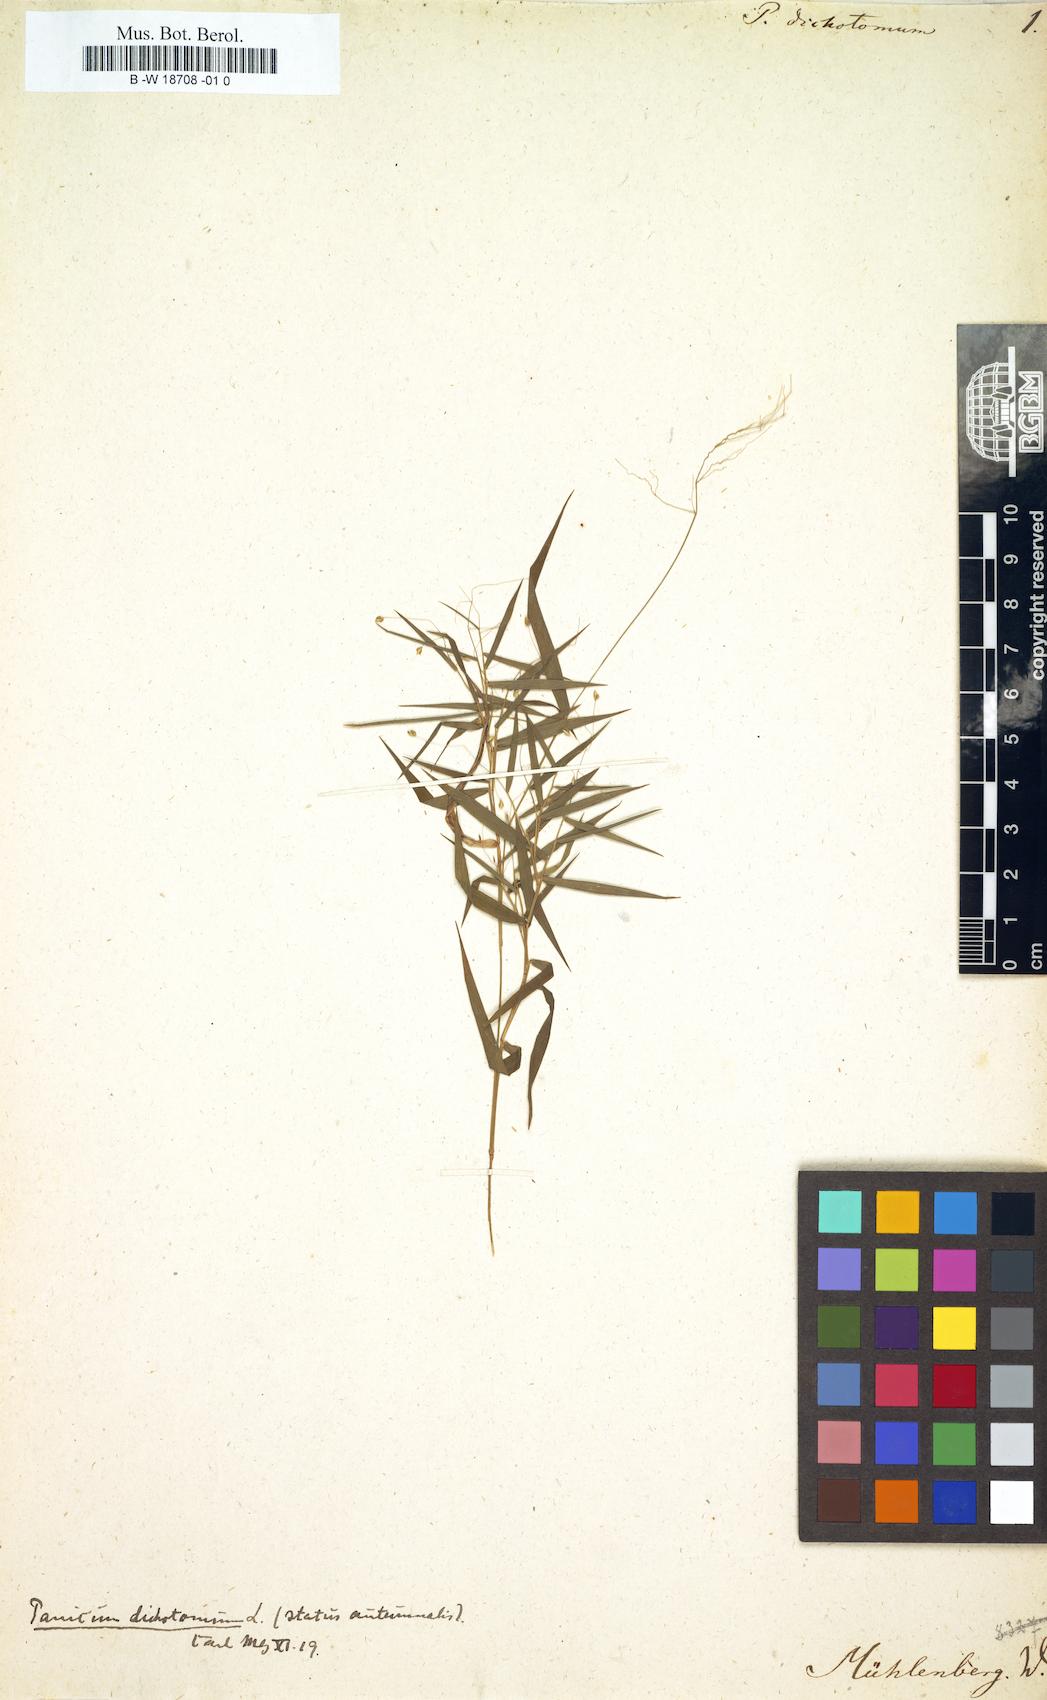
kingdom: Plantae
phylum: Tracheophyta
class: Liliopsida
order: Poales
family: Poaceae
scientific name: Poaceae
